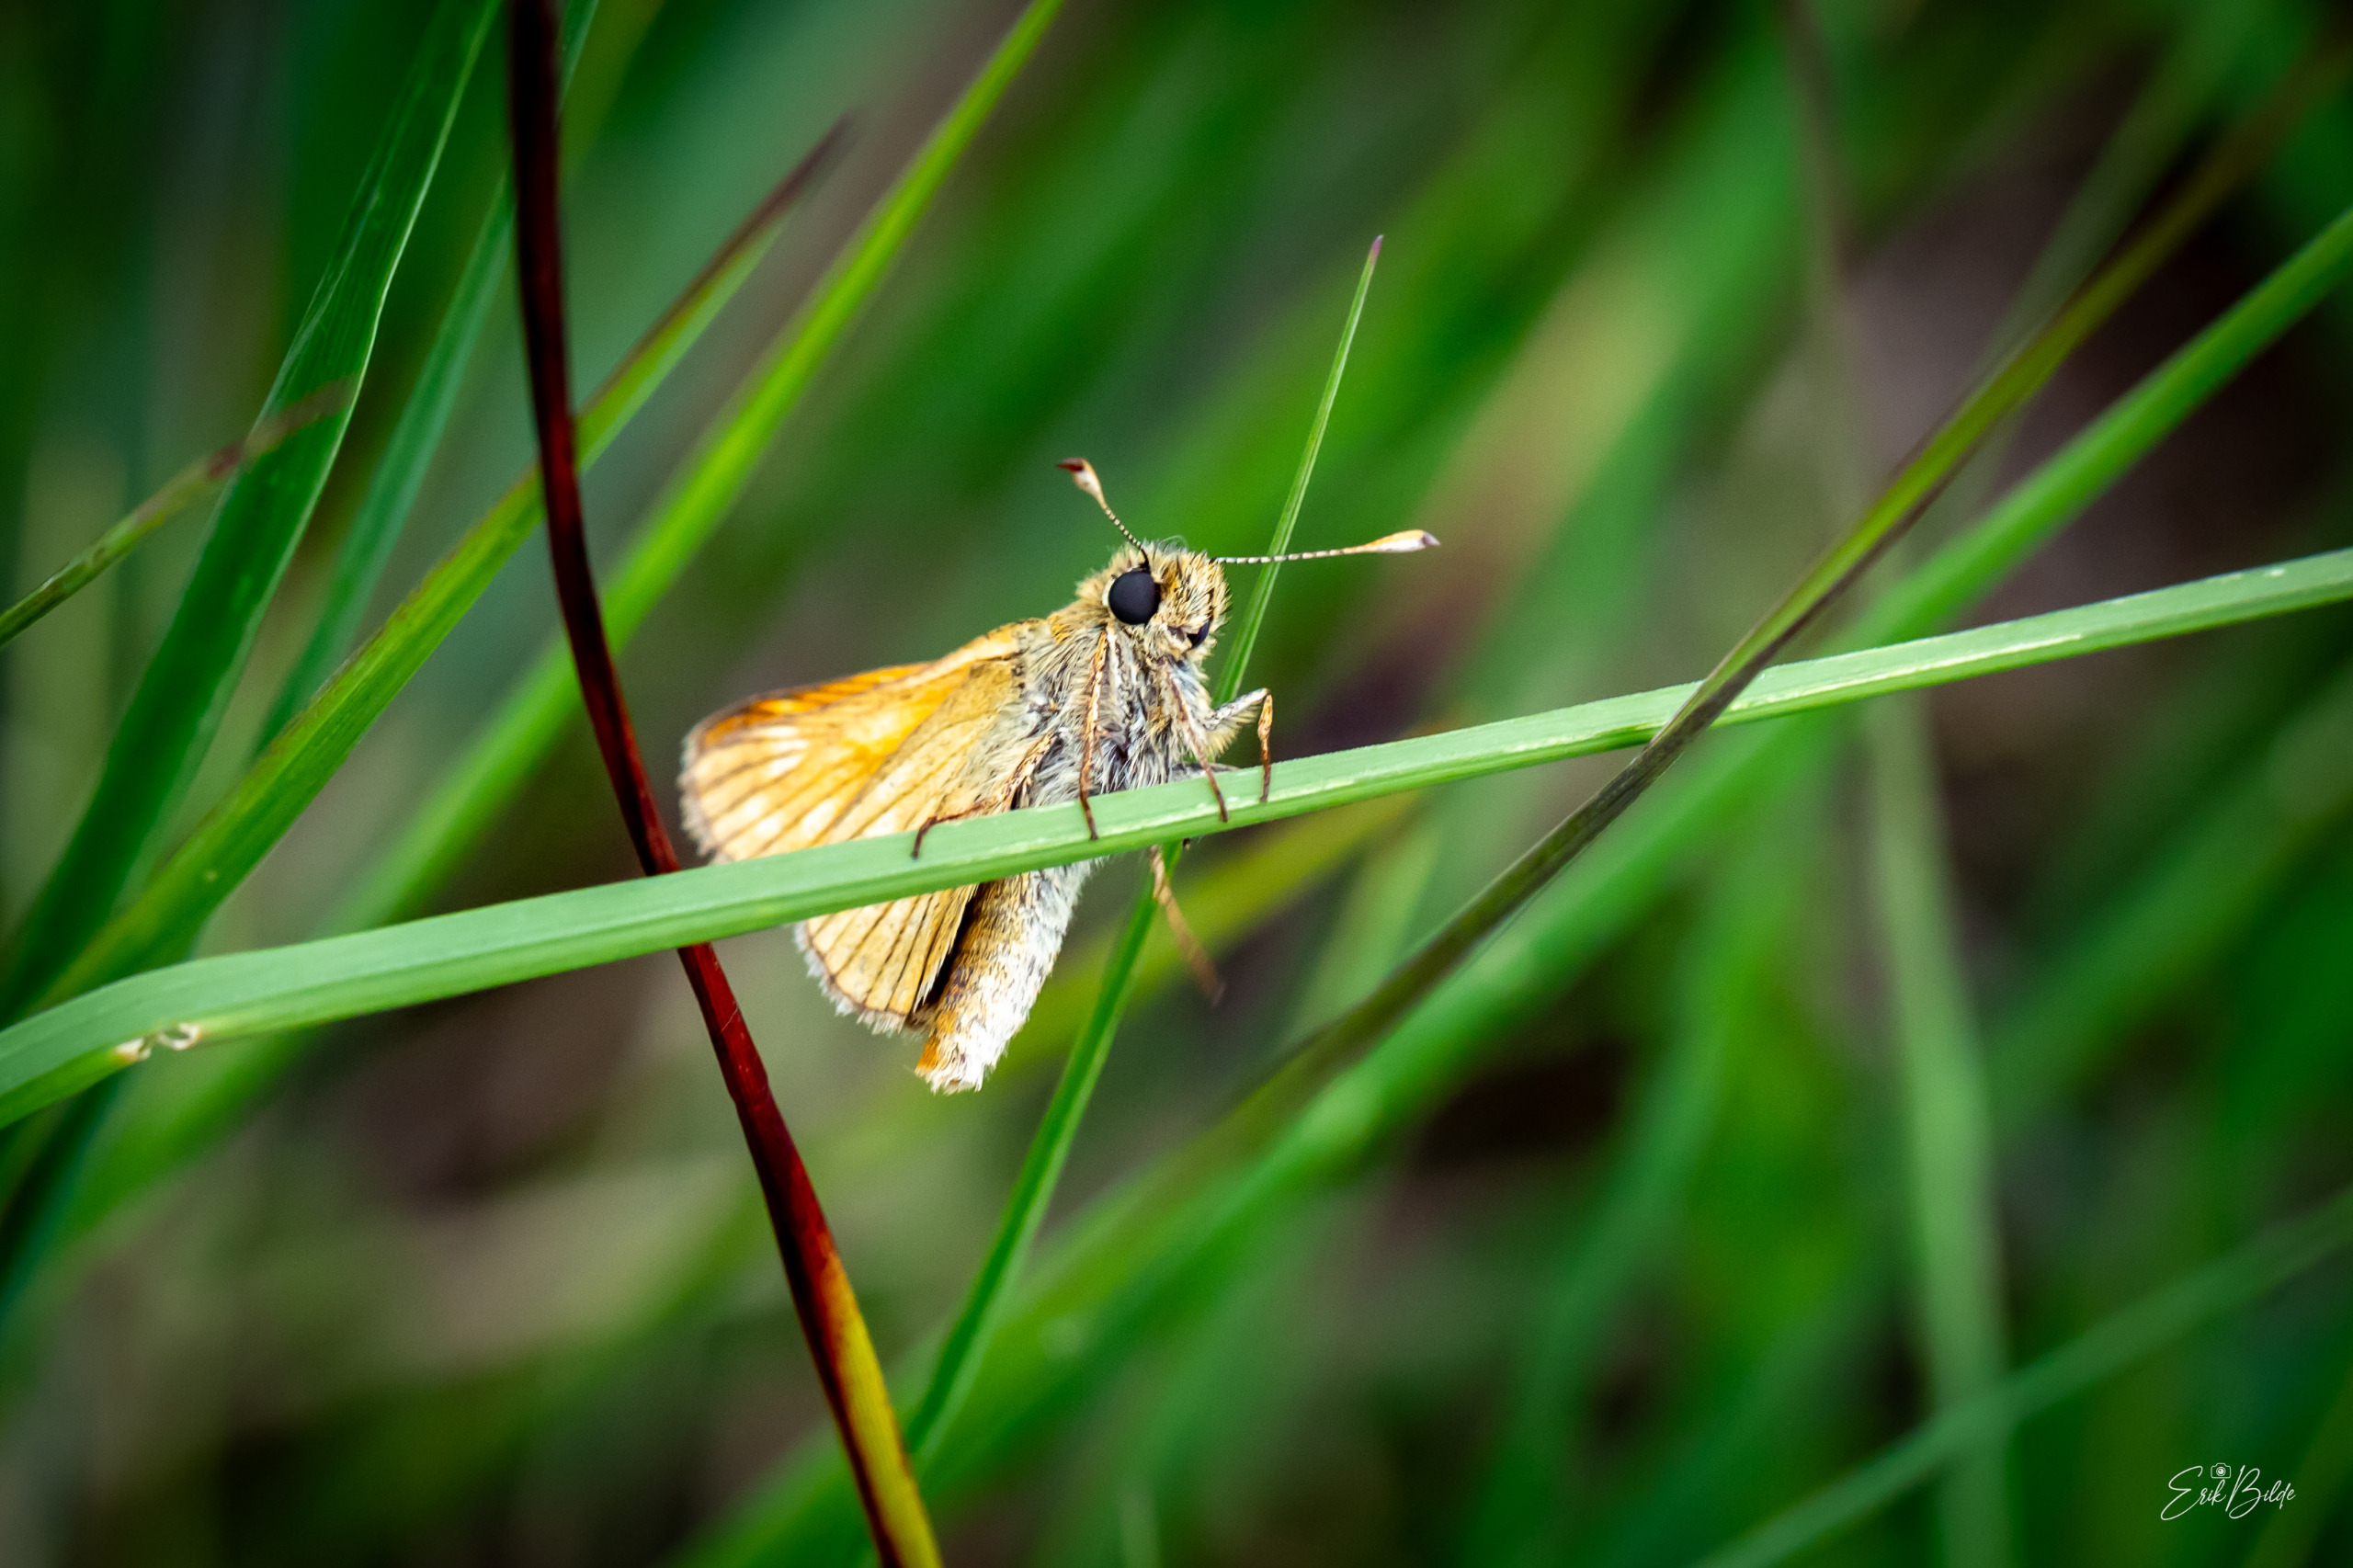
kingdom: Animalia
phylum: Arthropoda
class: Insecta
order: Lepidoptera
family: Hesperiidae
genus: Ochlodes
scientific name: Ochlodes venata
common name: Stor bredpande
